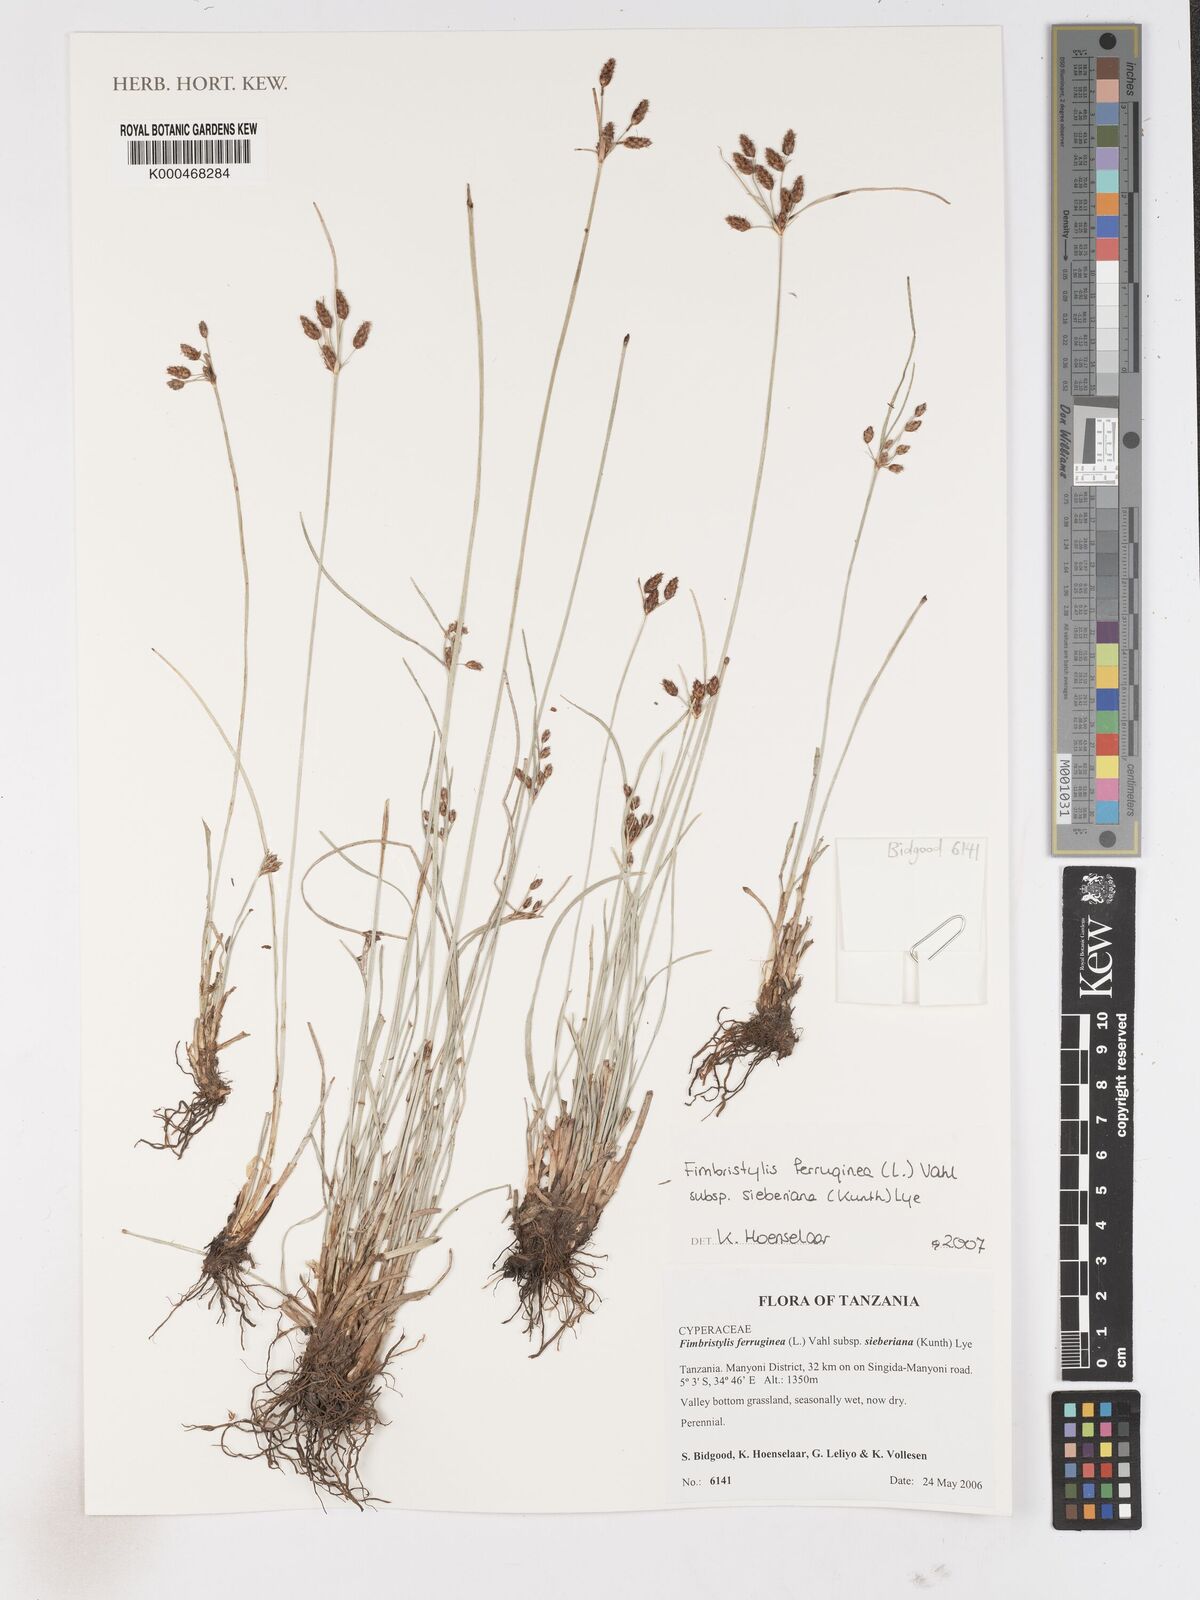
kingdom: Plantae
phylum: Tracheophyta
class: Liliopsida
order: Poales
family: Cyperaceae
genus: Fimbristylis
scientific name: Fimbristylis ferruginea
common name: West indian fimbry
